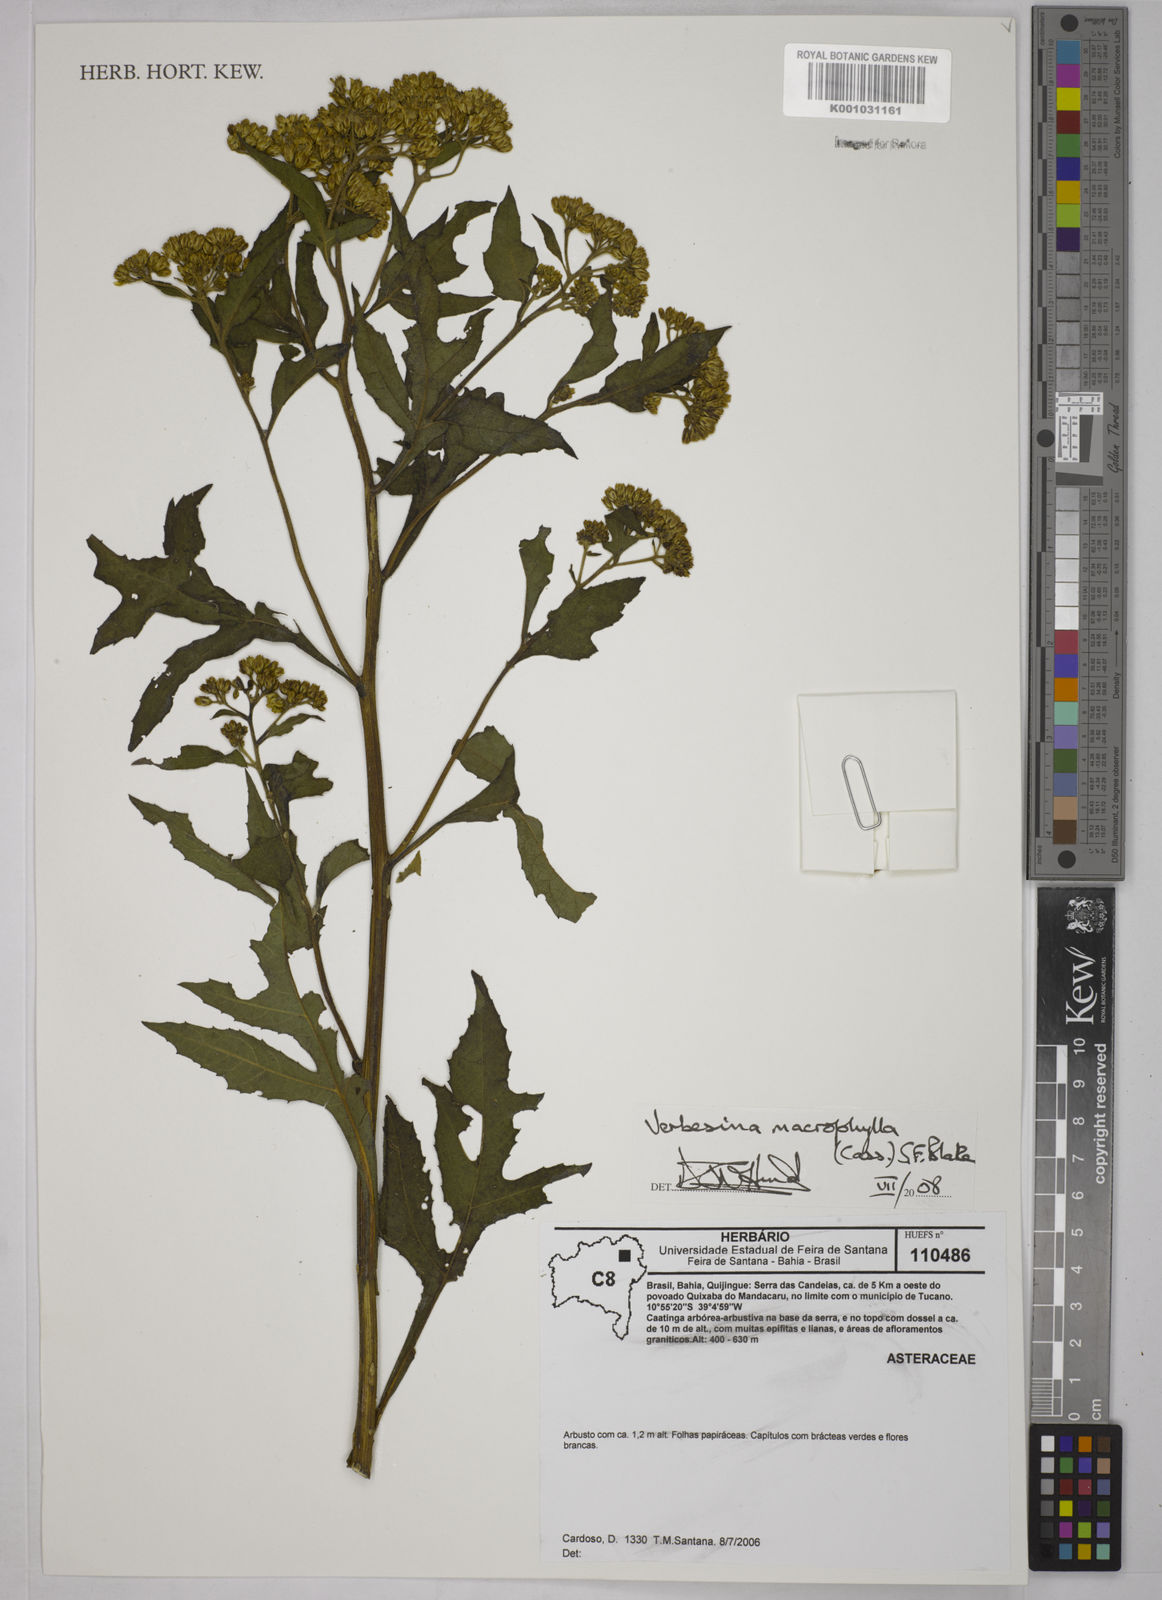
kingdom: Plantae
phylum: Tracheophyta
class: Magnoliopsida
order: Asterales
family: Asteraceae
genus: Verbesina
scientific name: Verbesina macrophylla
